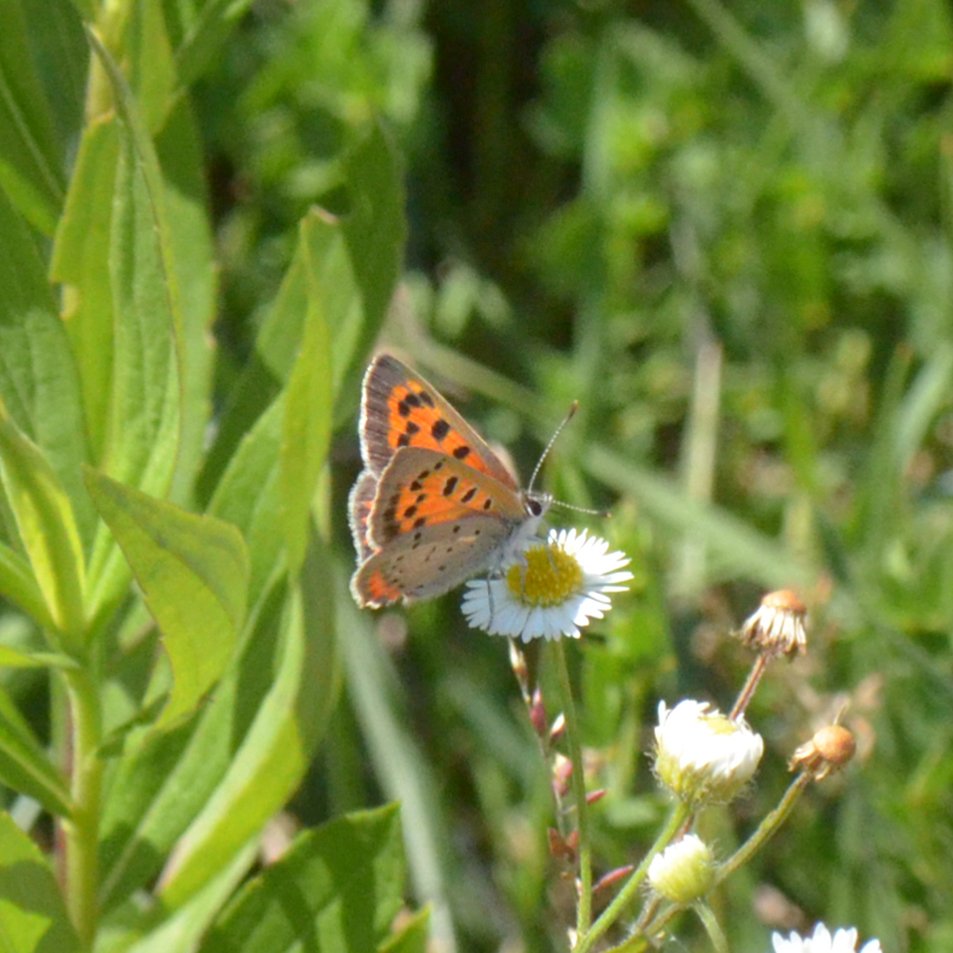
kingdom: Animalia
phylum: Arthropoda
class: Insecta
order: Lepidoptera
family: Lycaenidae
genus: Lycaena
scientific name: Lycaena phlaeas
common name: American Copper
